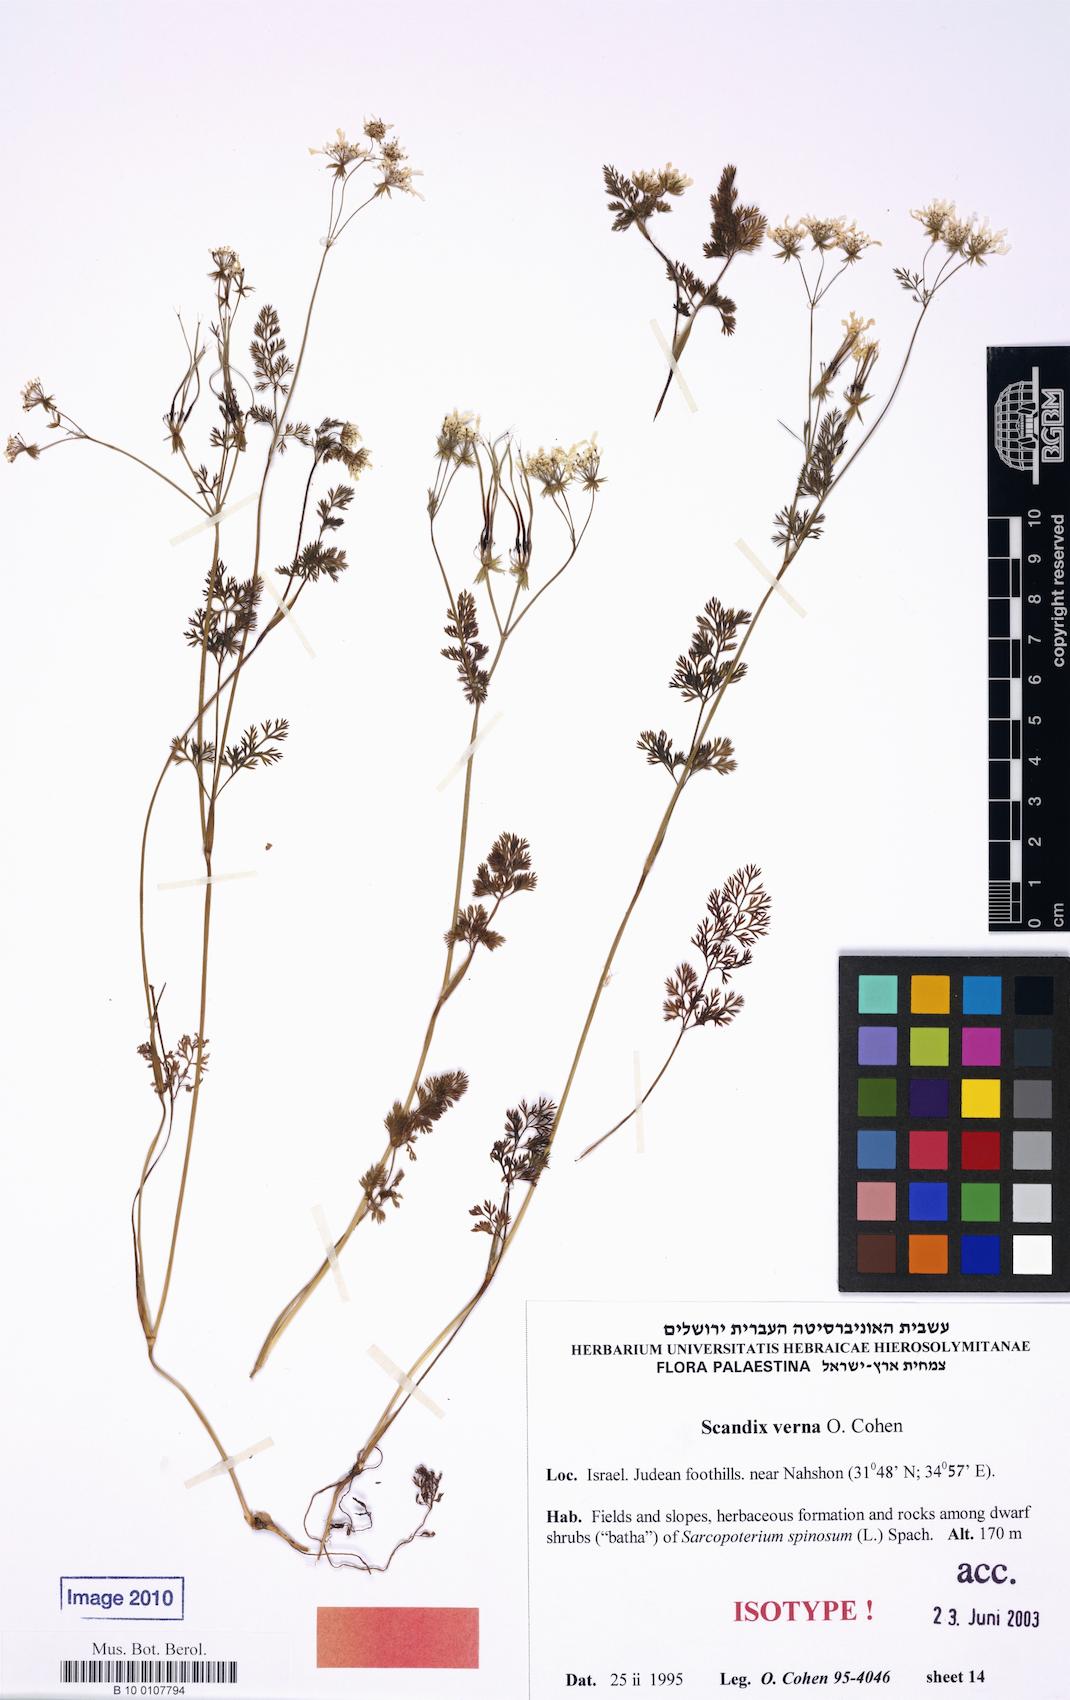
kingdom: Plantae
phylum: Tracheophyta
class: Magnoliopsida
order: Apiales
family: Apiaceae
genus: Scandix
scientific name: Scandix verna
